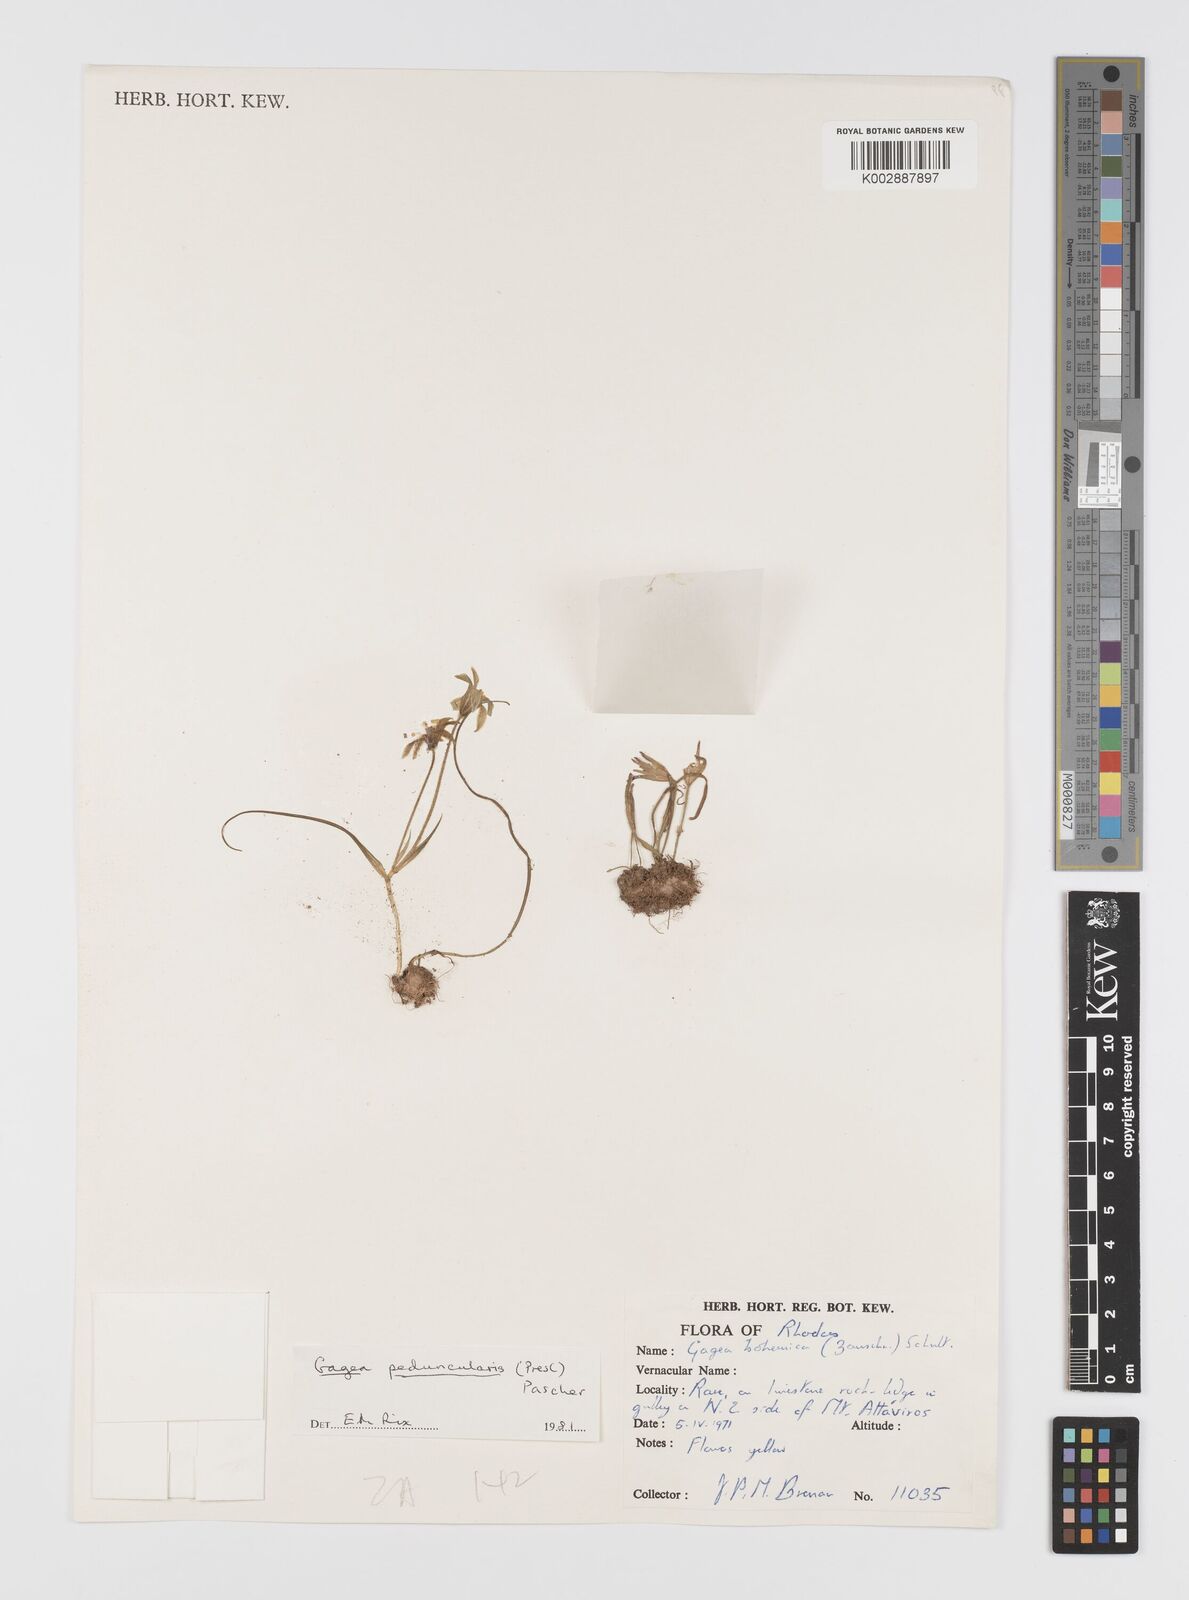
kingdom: Plantae
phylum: Tracheophyta
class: Liliopsida
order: Liliales
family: Liliaceae
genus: Gagea
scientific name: Gagea peduncularis
